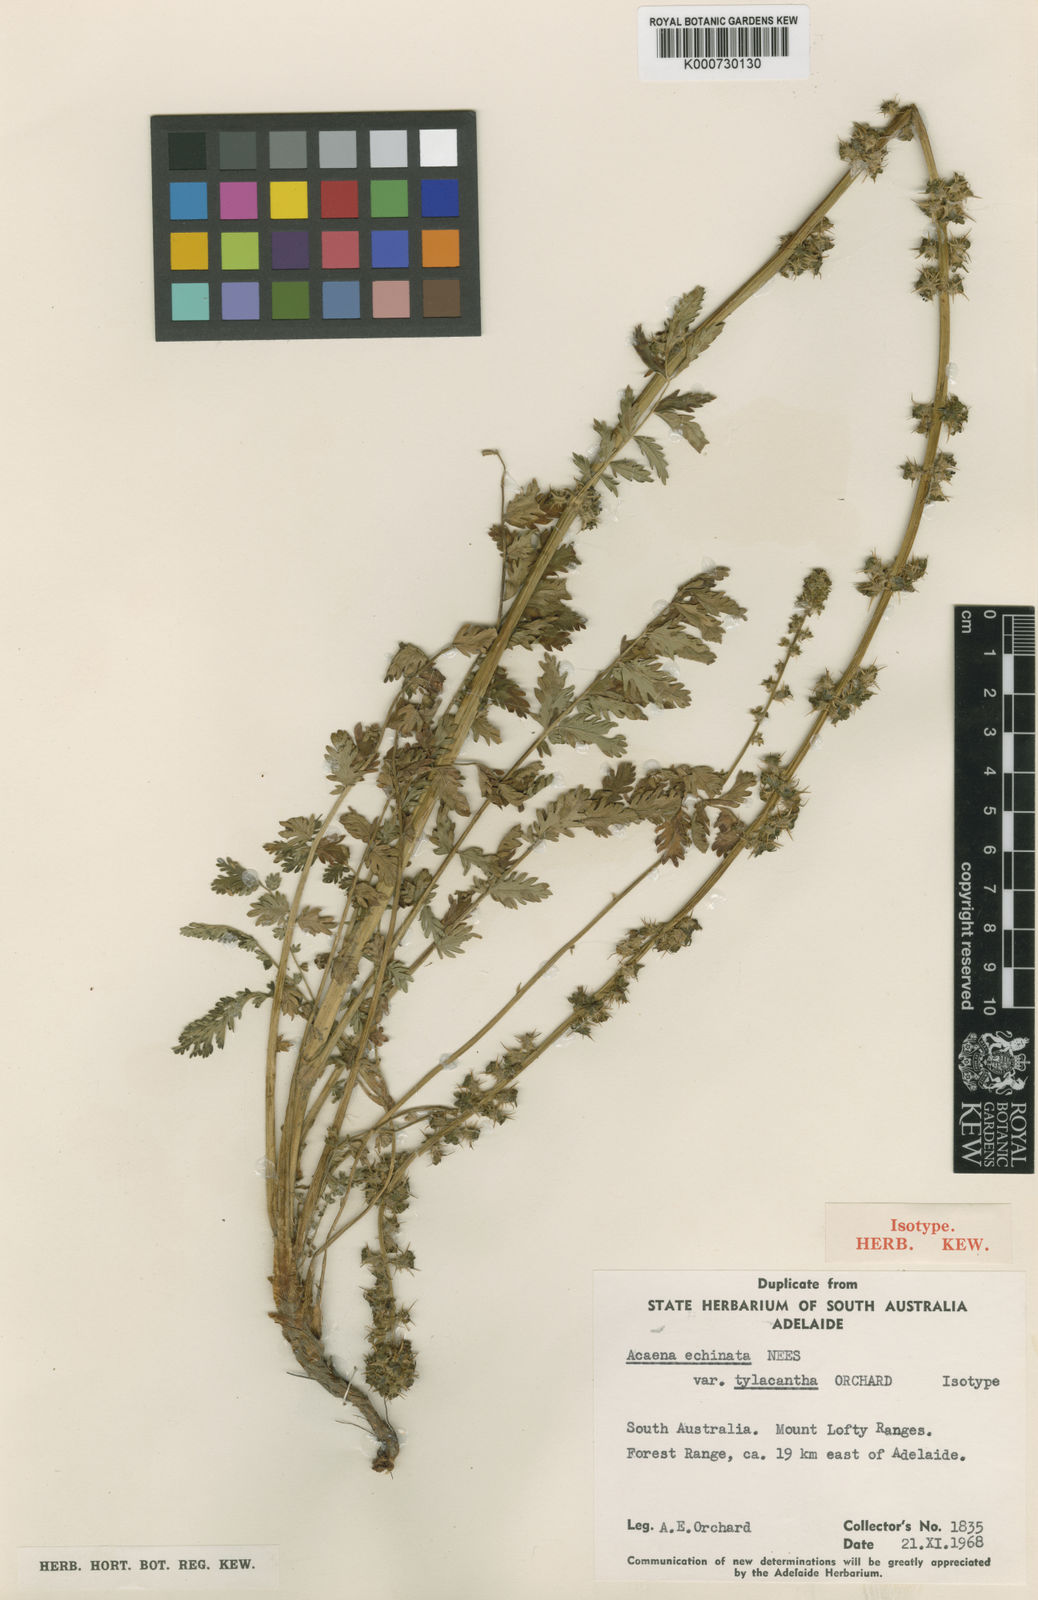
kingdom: Plantae
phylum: Tracheophyta
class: Magnoliopsida
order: Rosales
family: Rosaceae
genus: Acaena
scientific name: Acaena echinata
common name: Sheepbur
